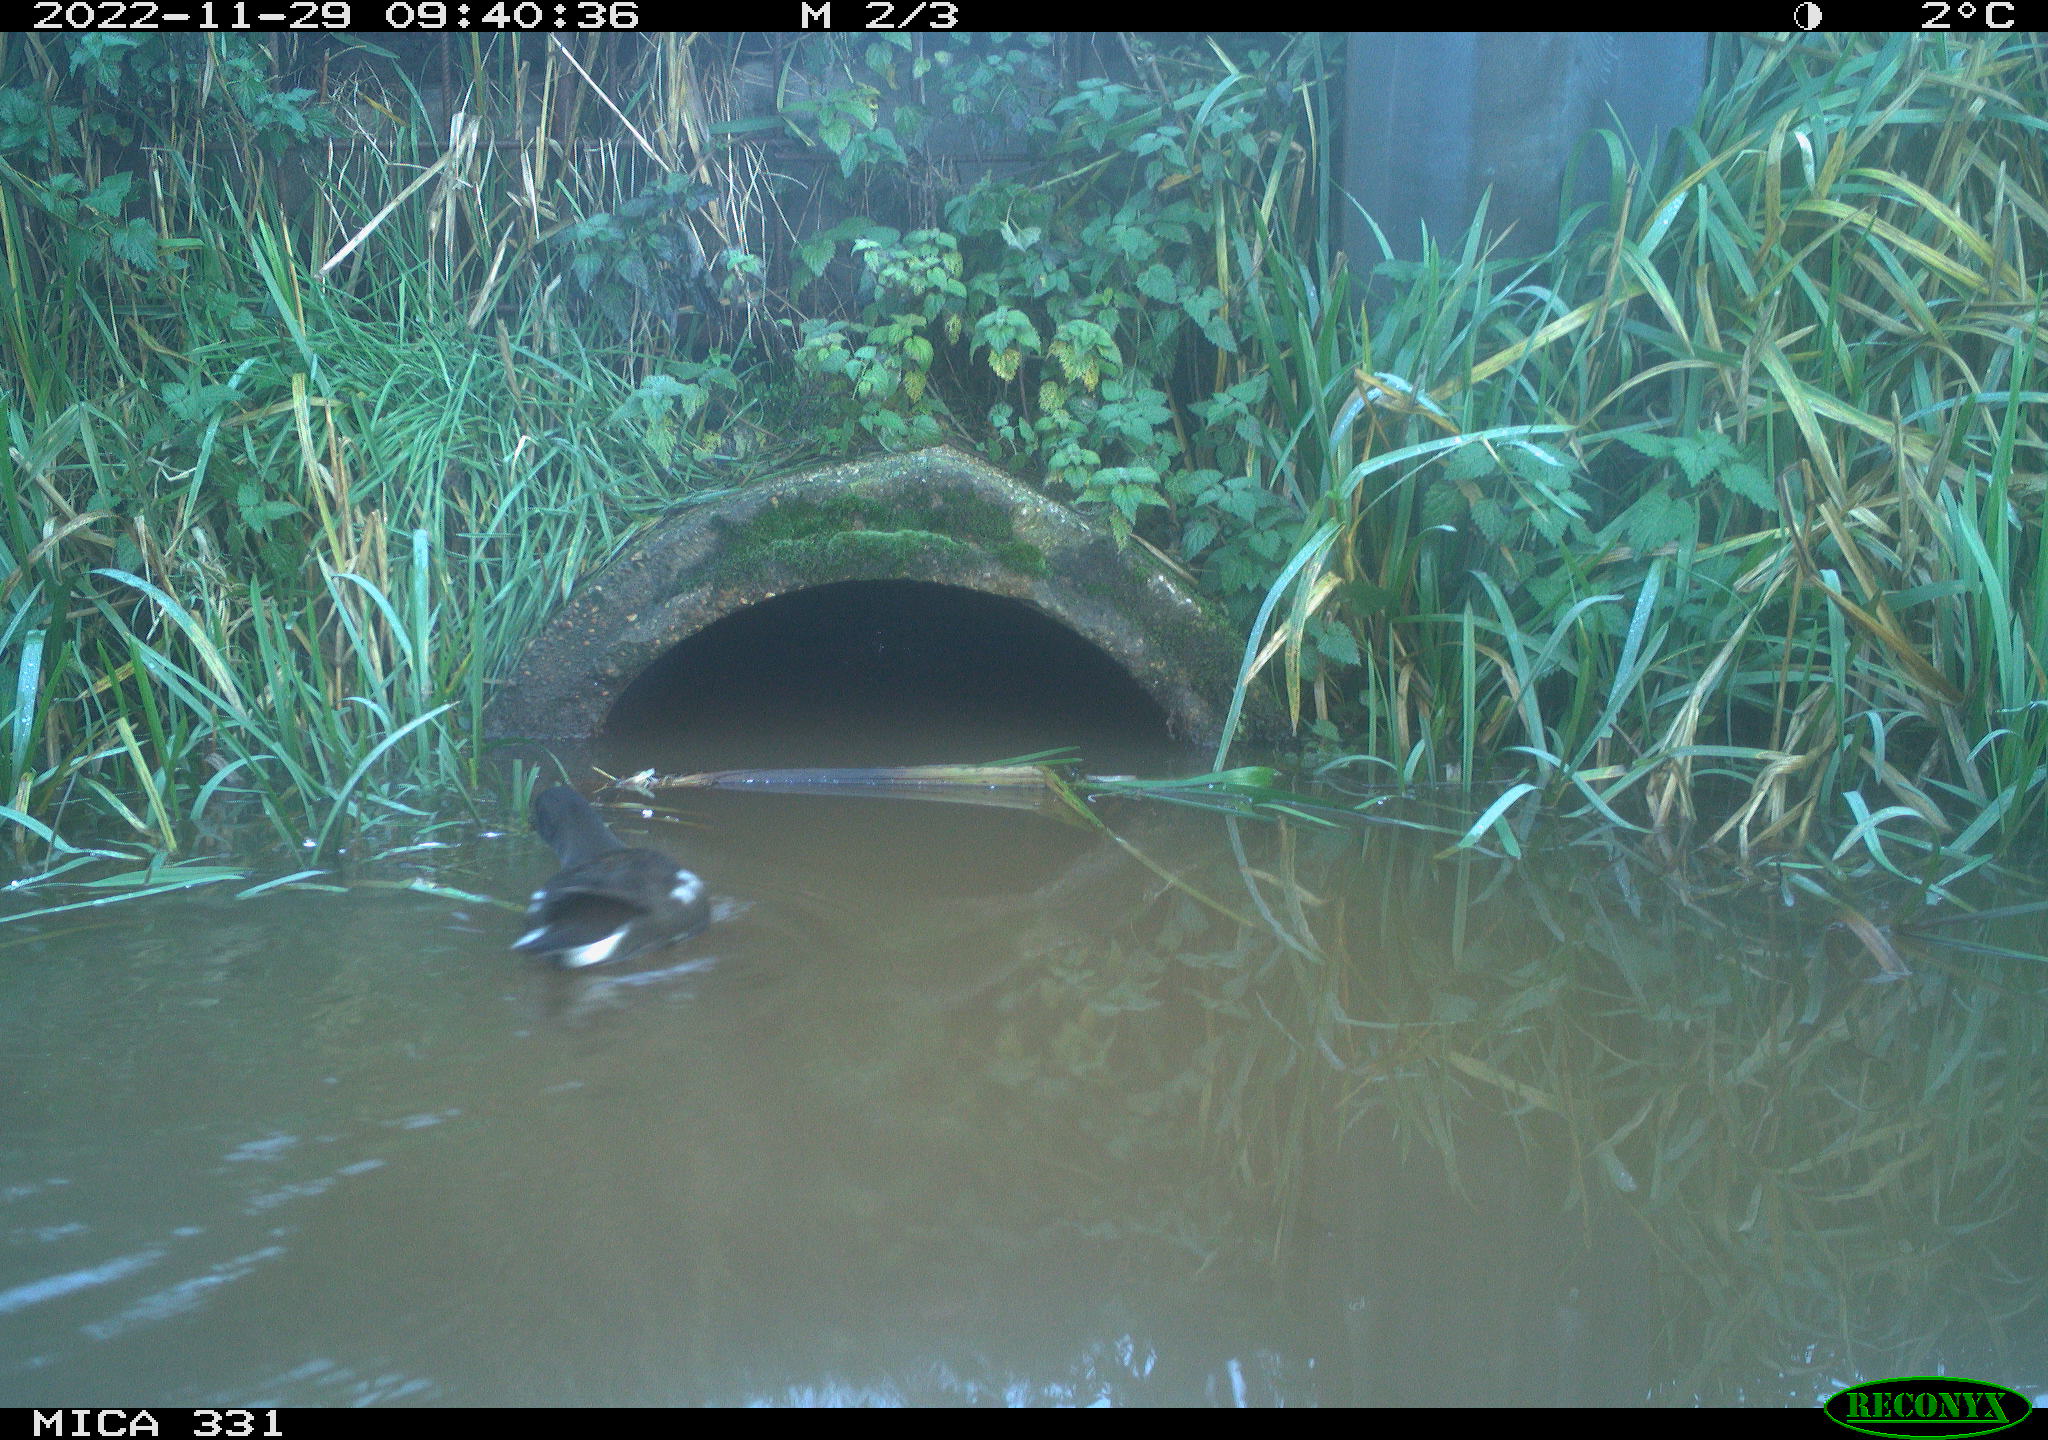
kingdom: Animalia
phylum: Chordata
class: Aves
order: Gruiformes
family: Rallidae
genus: Gallinula
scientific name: Gallinula chloropus
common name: Common moorhen
